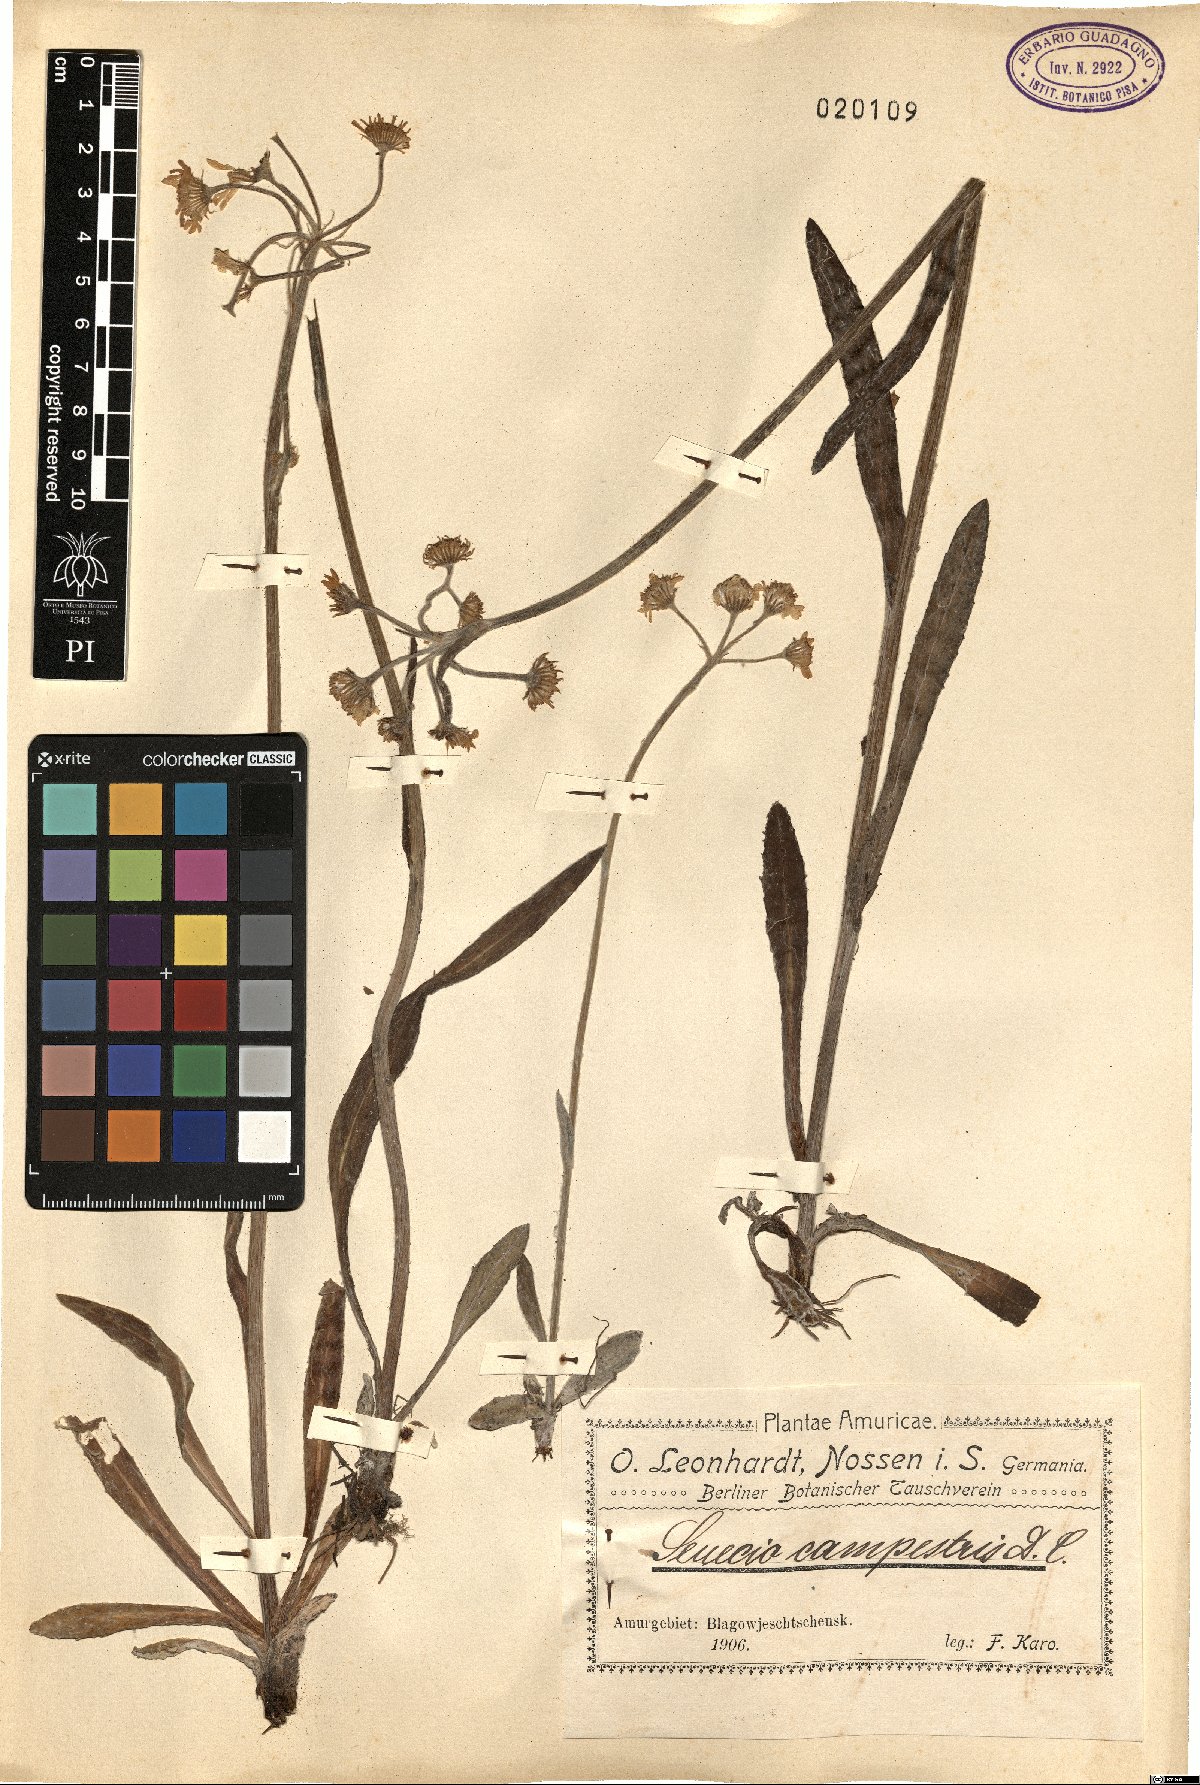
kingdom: Plantae
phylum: Tracheophyta
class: Magnoliopsida
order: Asterales
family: Asteraceae
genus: Tephroseris
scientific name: Tephroseris integrifolia
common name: Field fleawort
